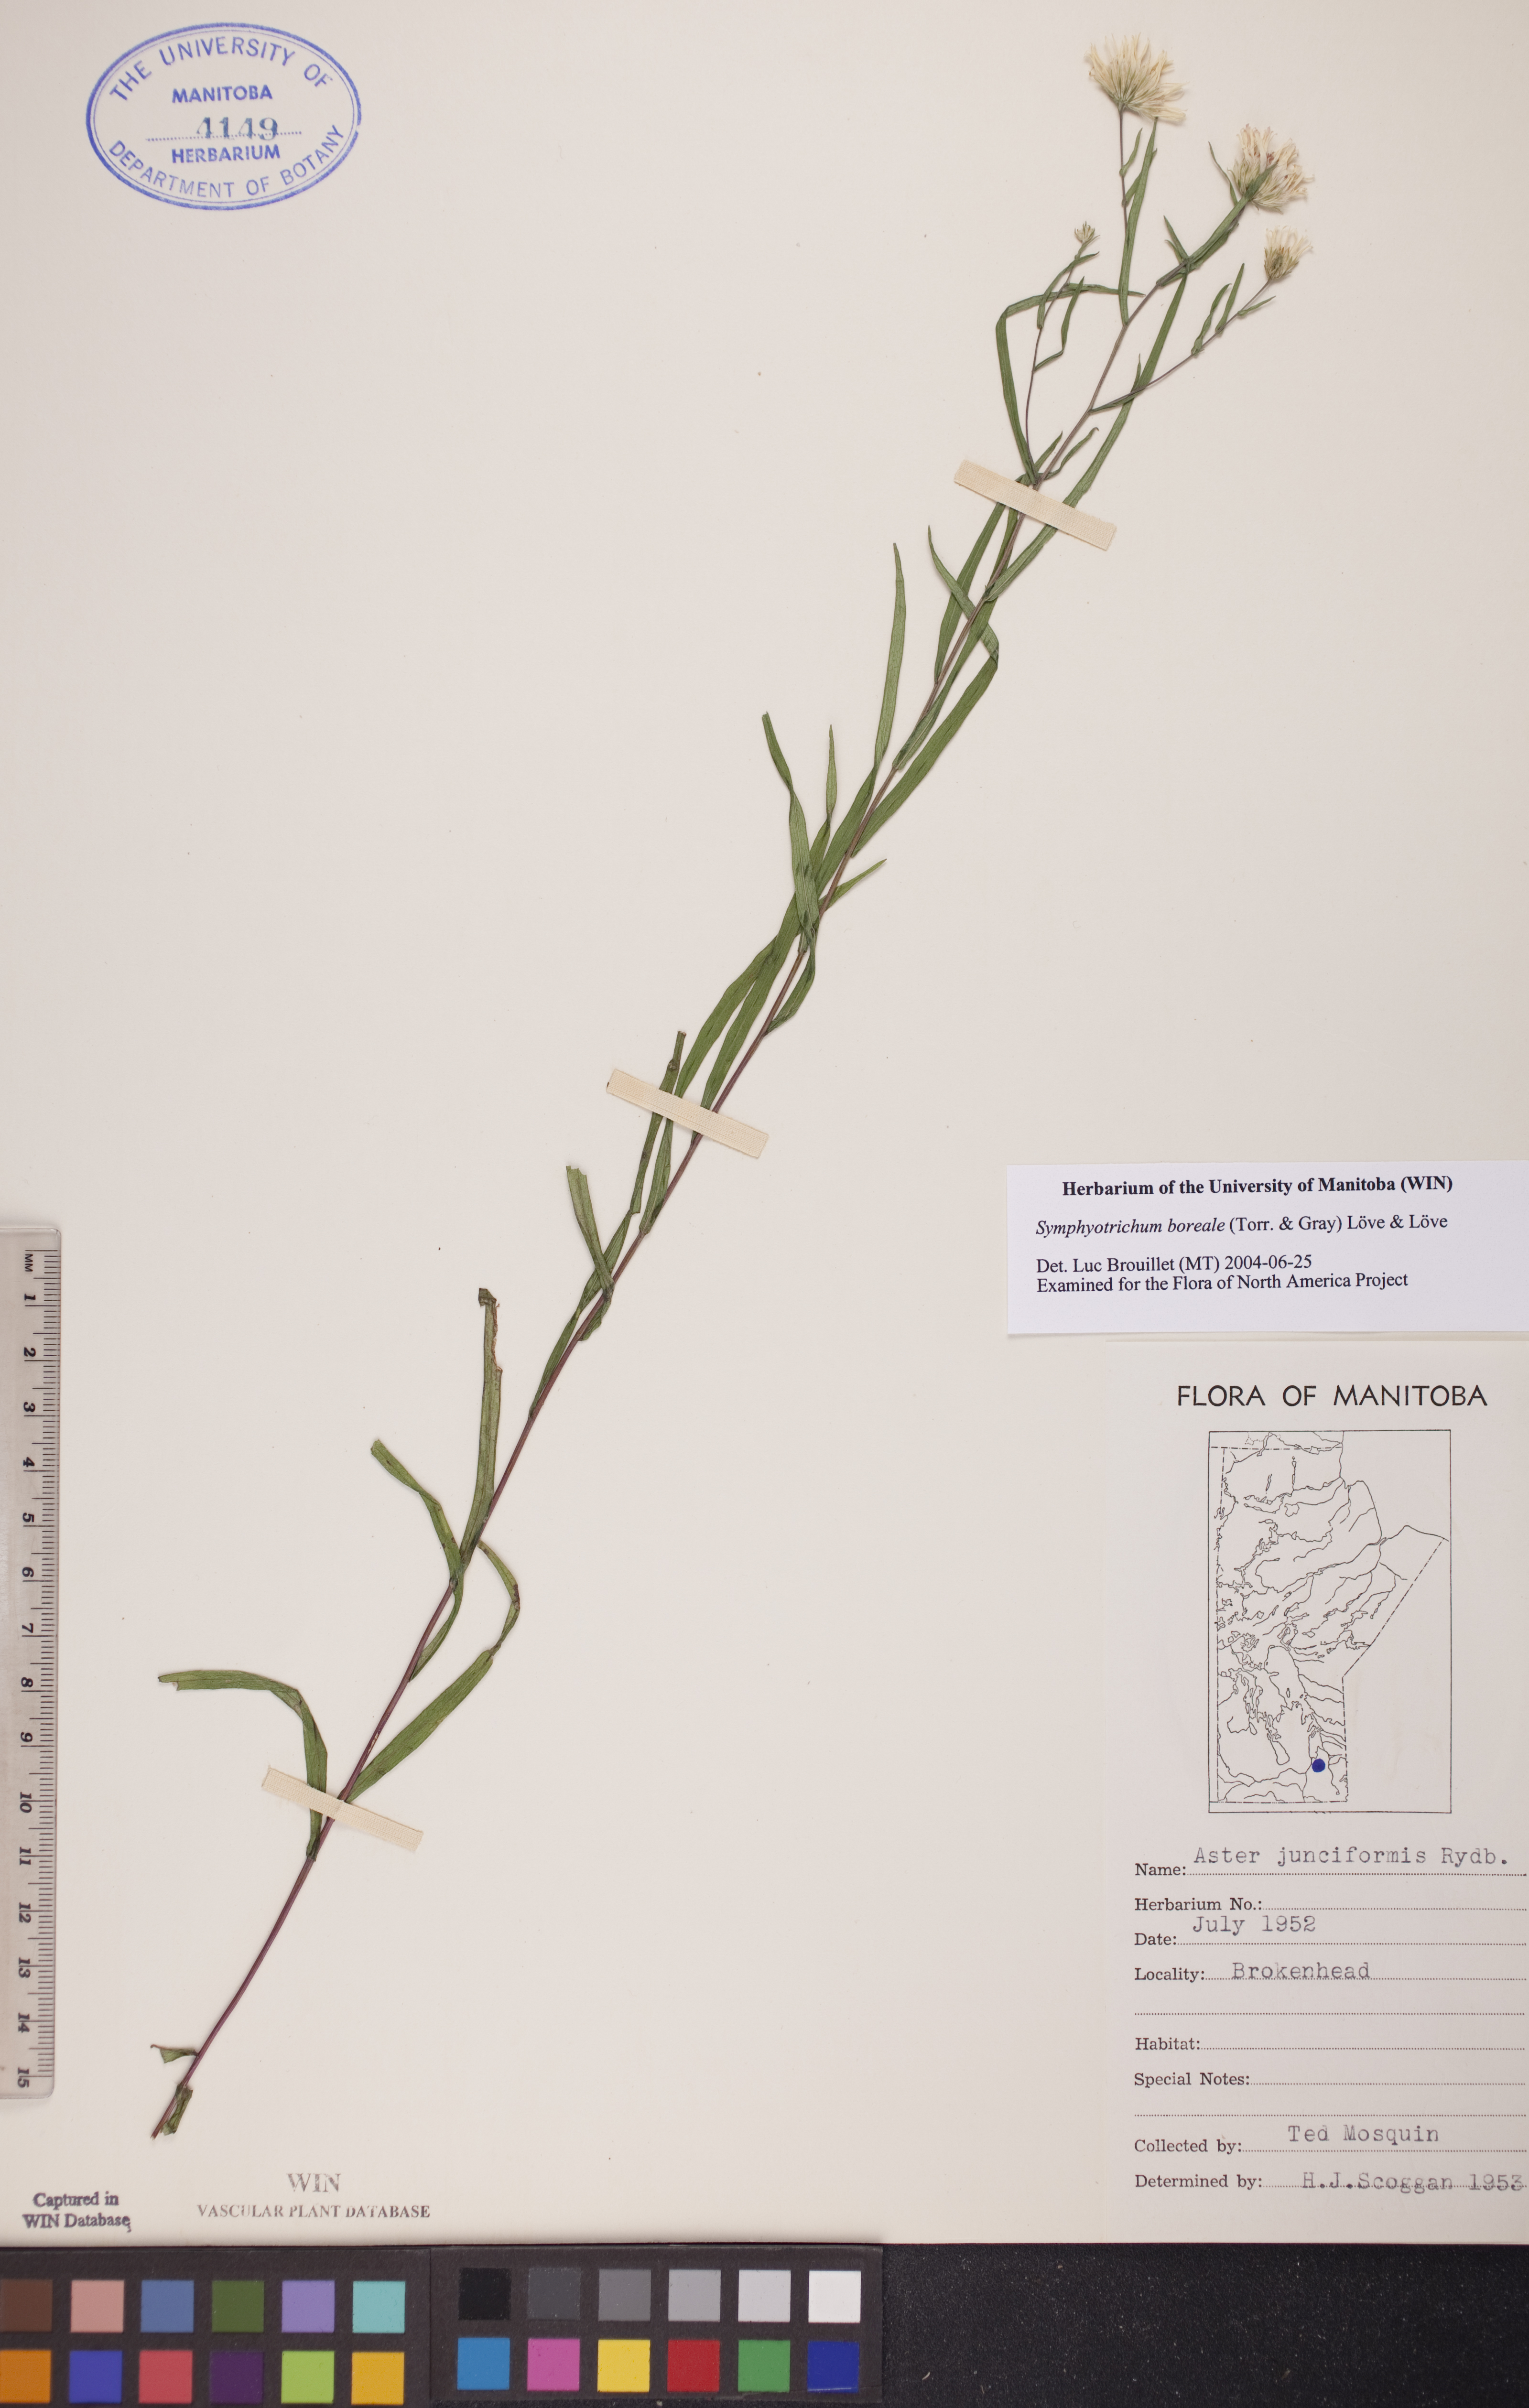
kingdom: Plantae
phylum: Tracheophyta
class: Magnoliopsida
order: Asterales
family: Asteraceae
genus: Symphyotrichum
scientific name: Symphyotrichum boreale
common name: Northern bog aster
